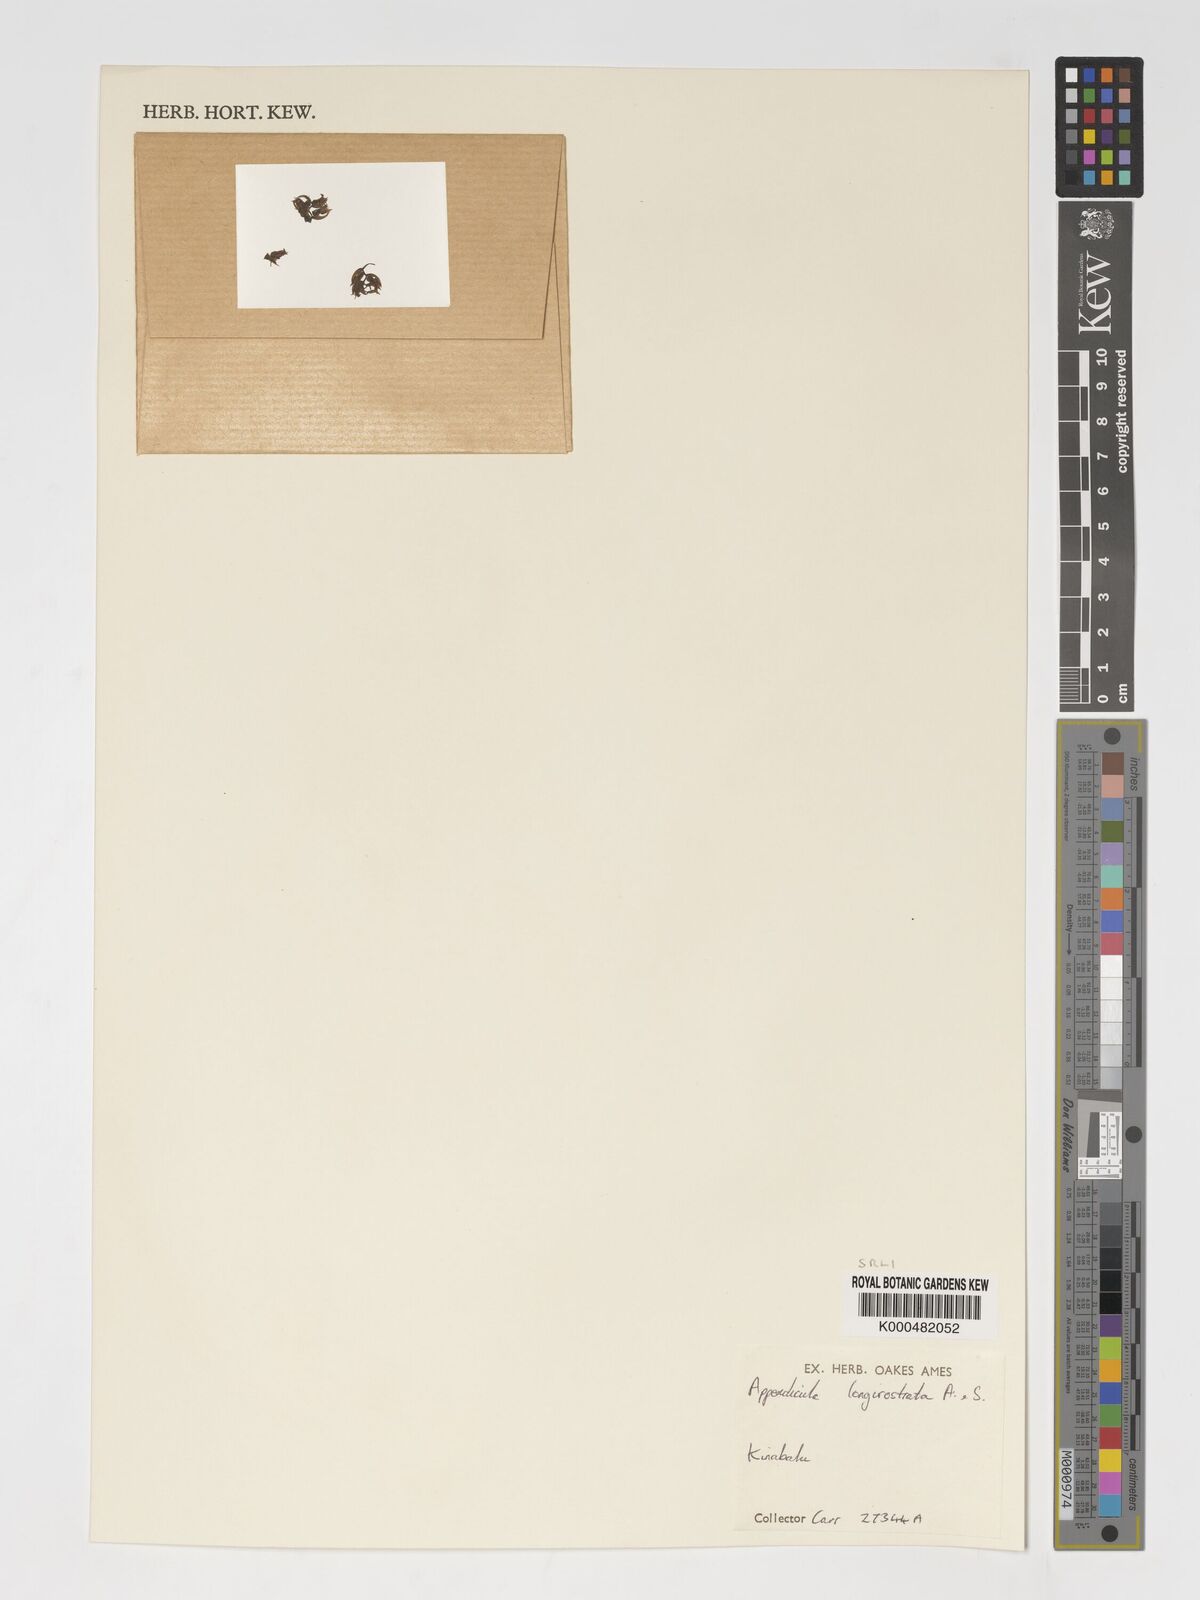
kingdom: Plantae
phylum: Tracheophyta
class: Liliopsida
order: Asparagales
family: Orchidaceae
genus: Appendicula
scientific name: Appendicula longirostrata
